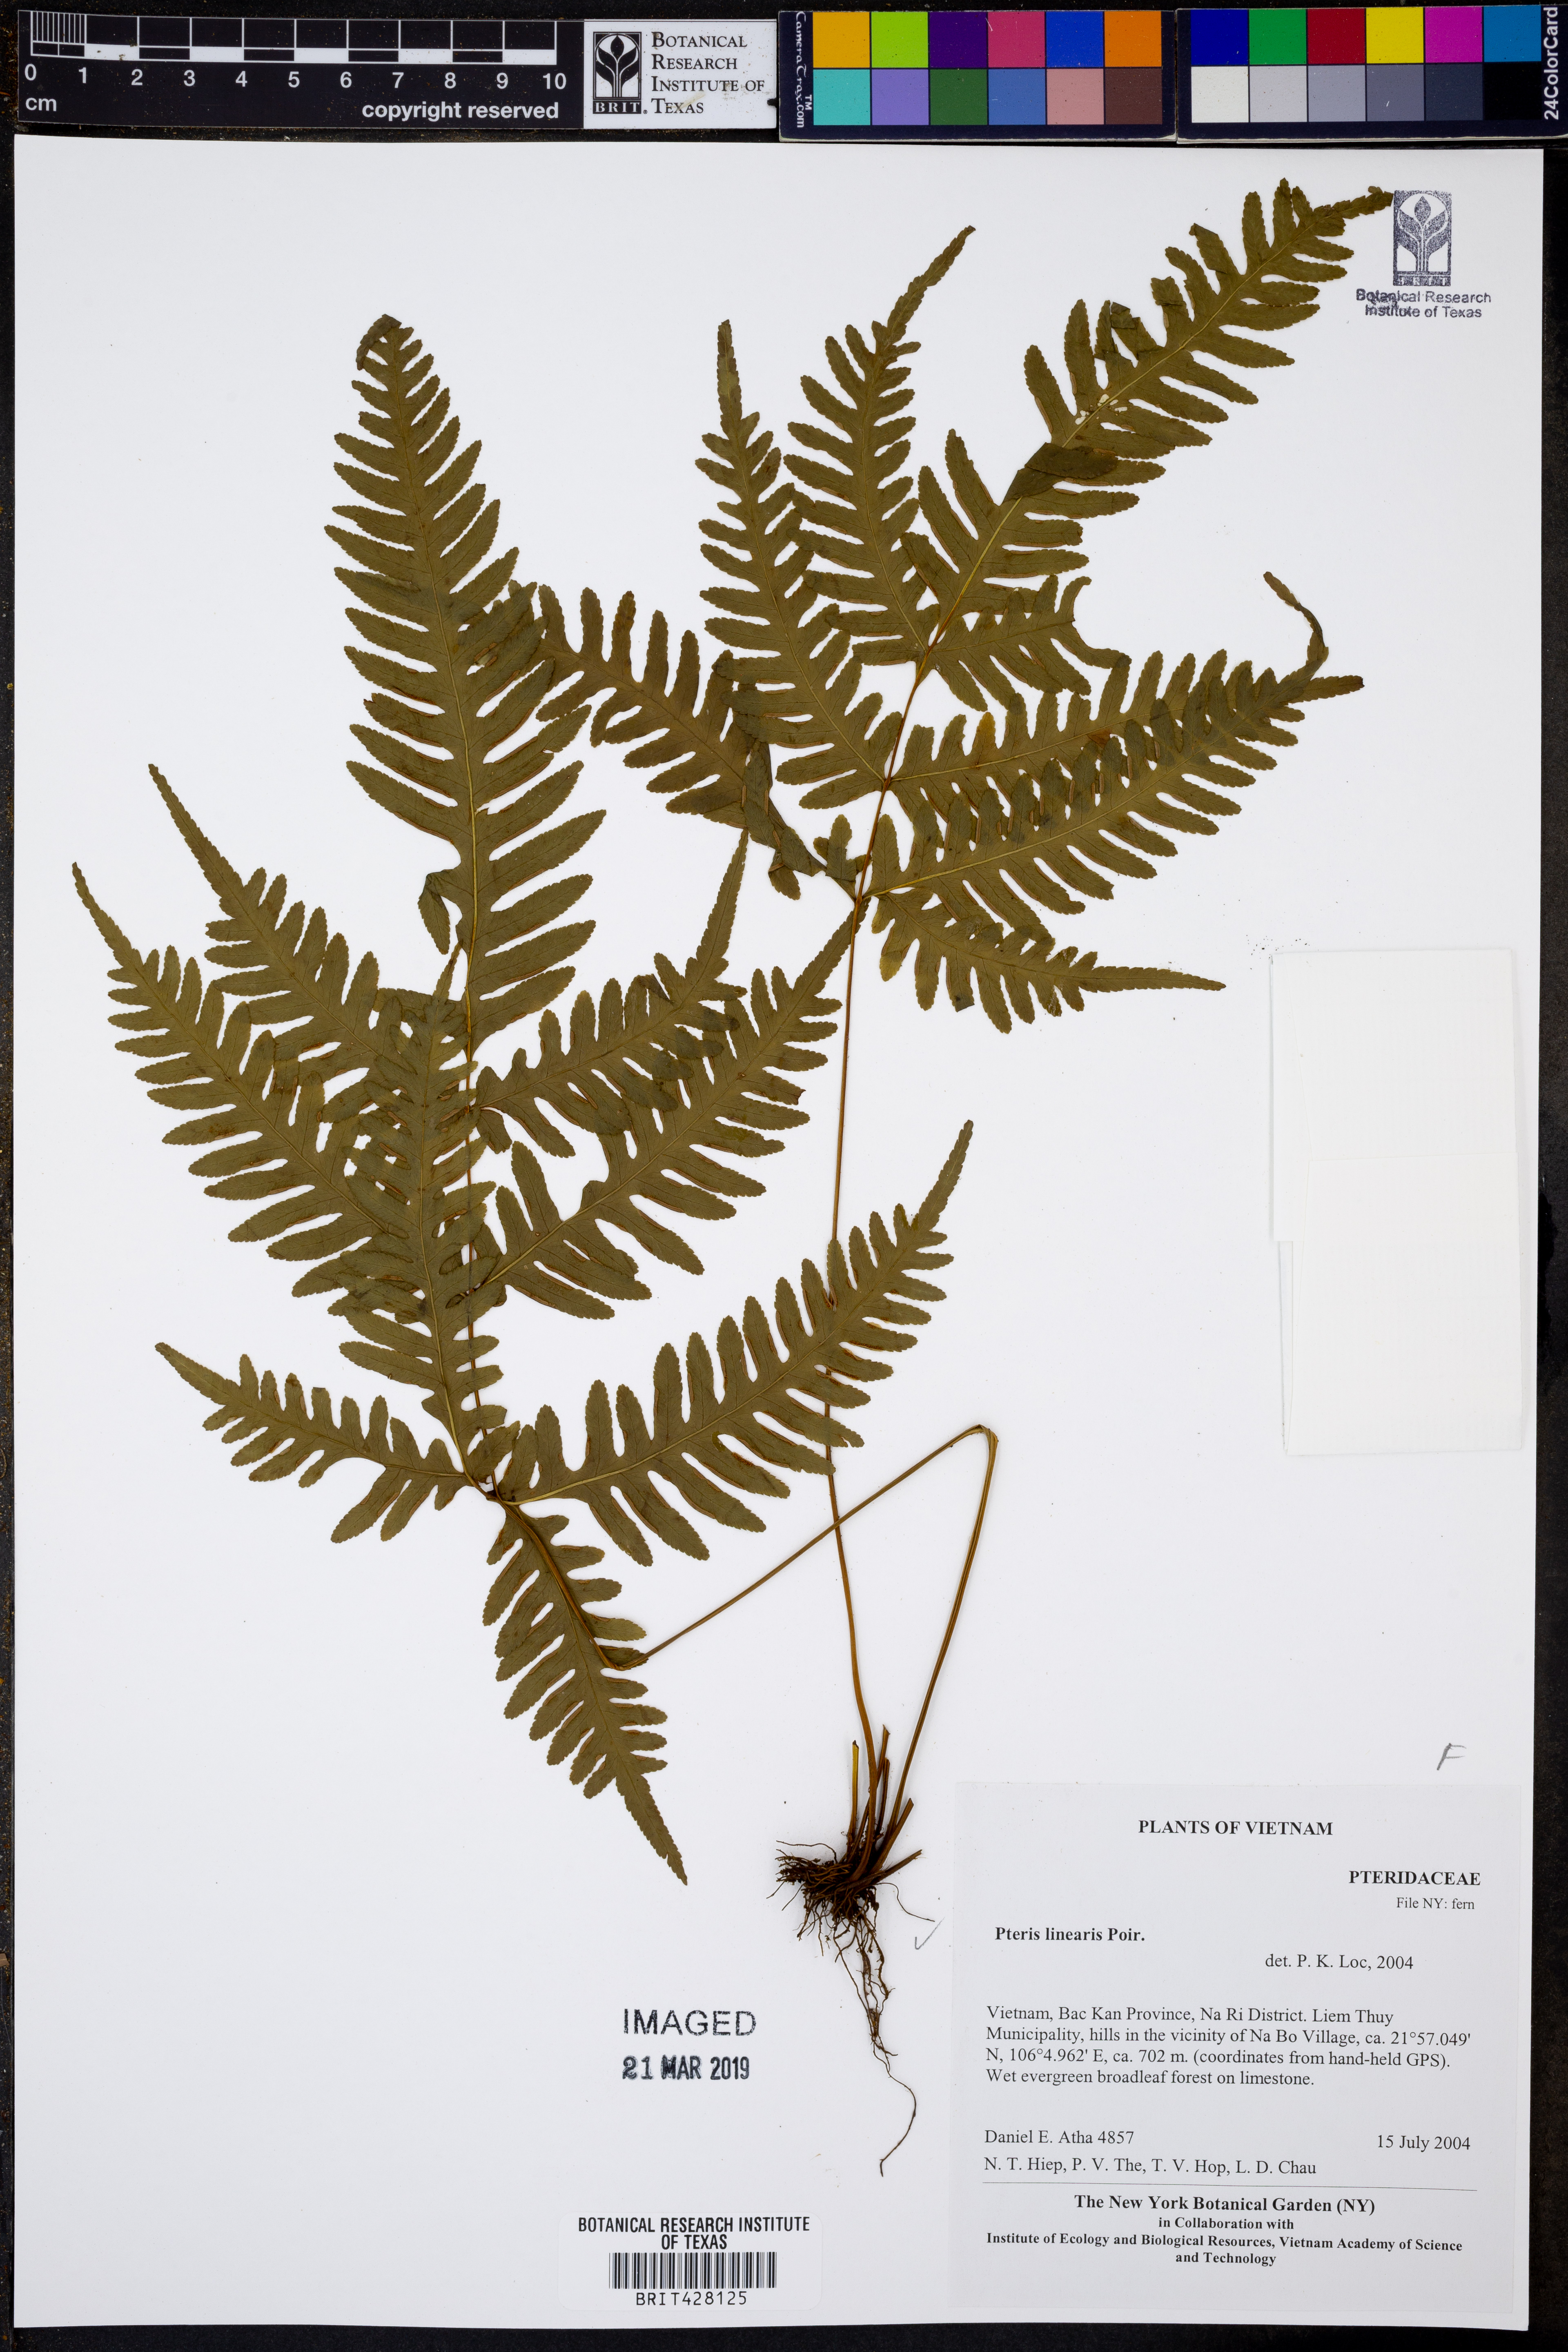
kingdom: Plantae
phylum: Tracheophyta
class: Polypodiopsida
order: Polypodiales
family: Pteridaceae
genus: Pteris
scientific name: Pteris linearis
